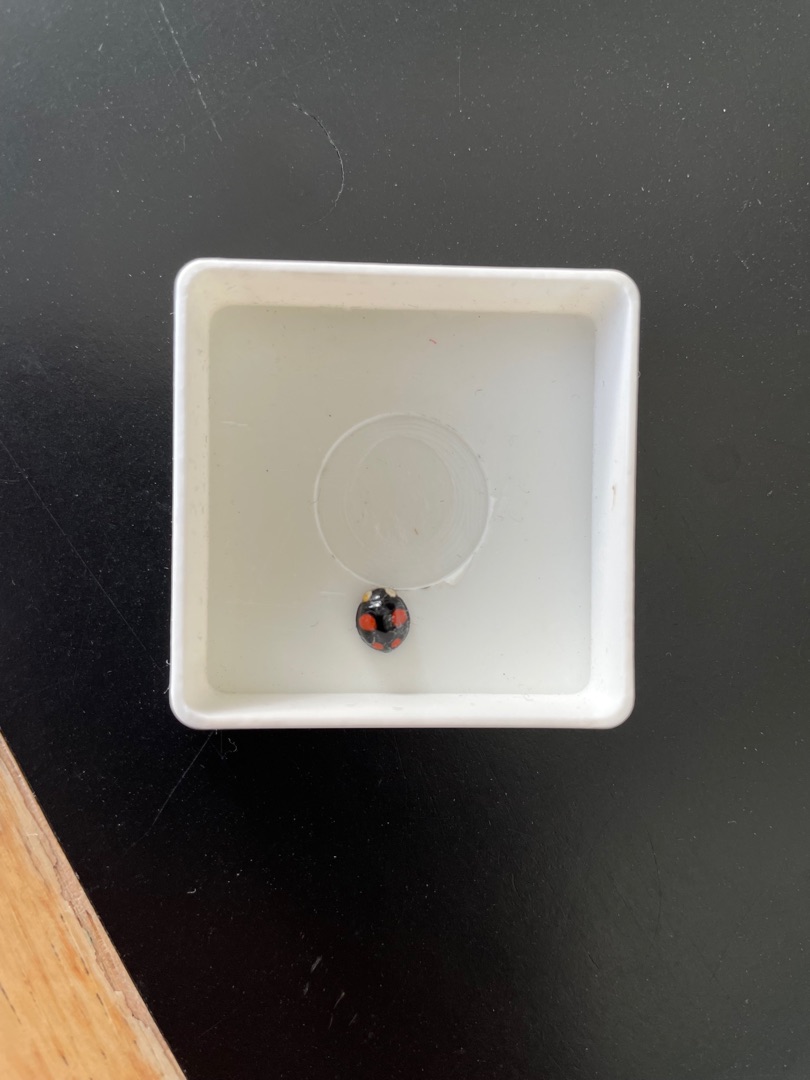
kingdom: Animalia
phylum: Arthropoda
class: Insecta
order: Coleoptera
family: Coccinellidae
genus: Harmonia
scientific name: Harmonia axyridis
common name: Harlekinmariehøne
